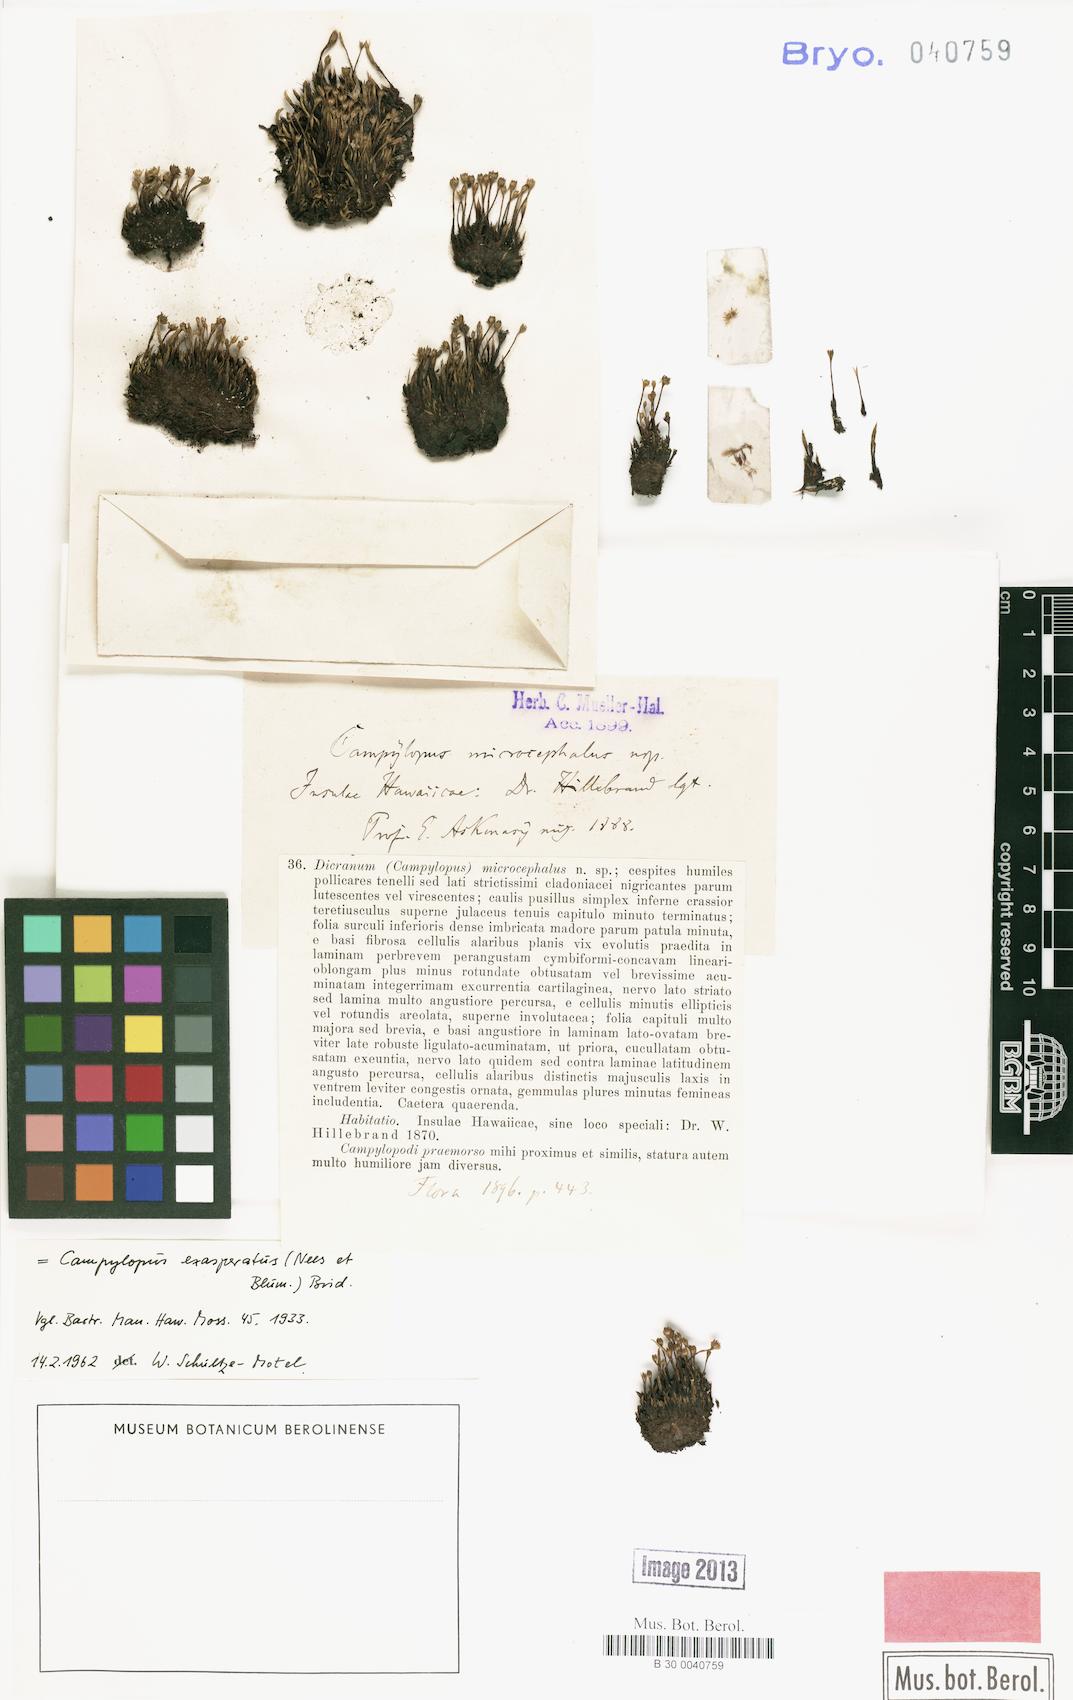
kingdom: Plantae
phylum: Bryophyta
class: Bryopsida
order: Dicranales
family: Leucobryaceae
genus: Campylopus
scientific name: Campylopus exasperatus
